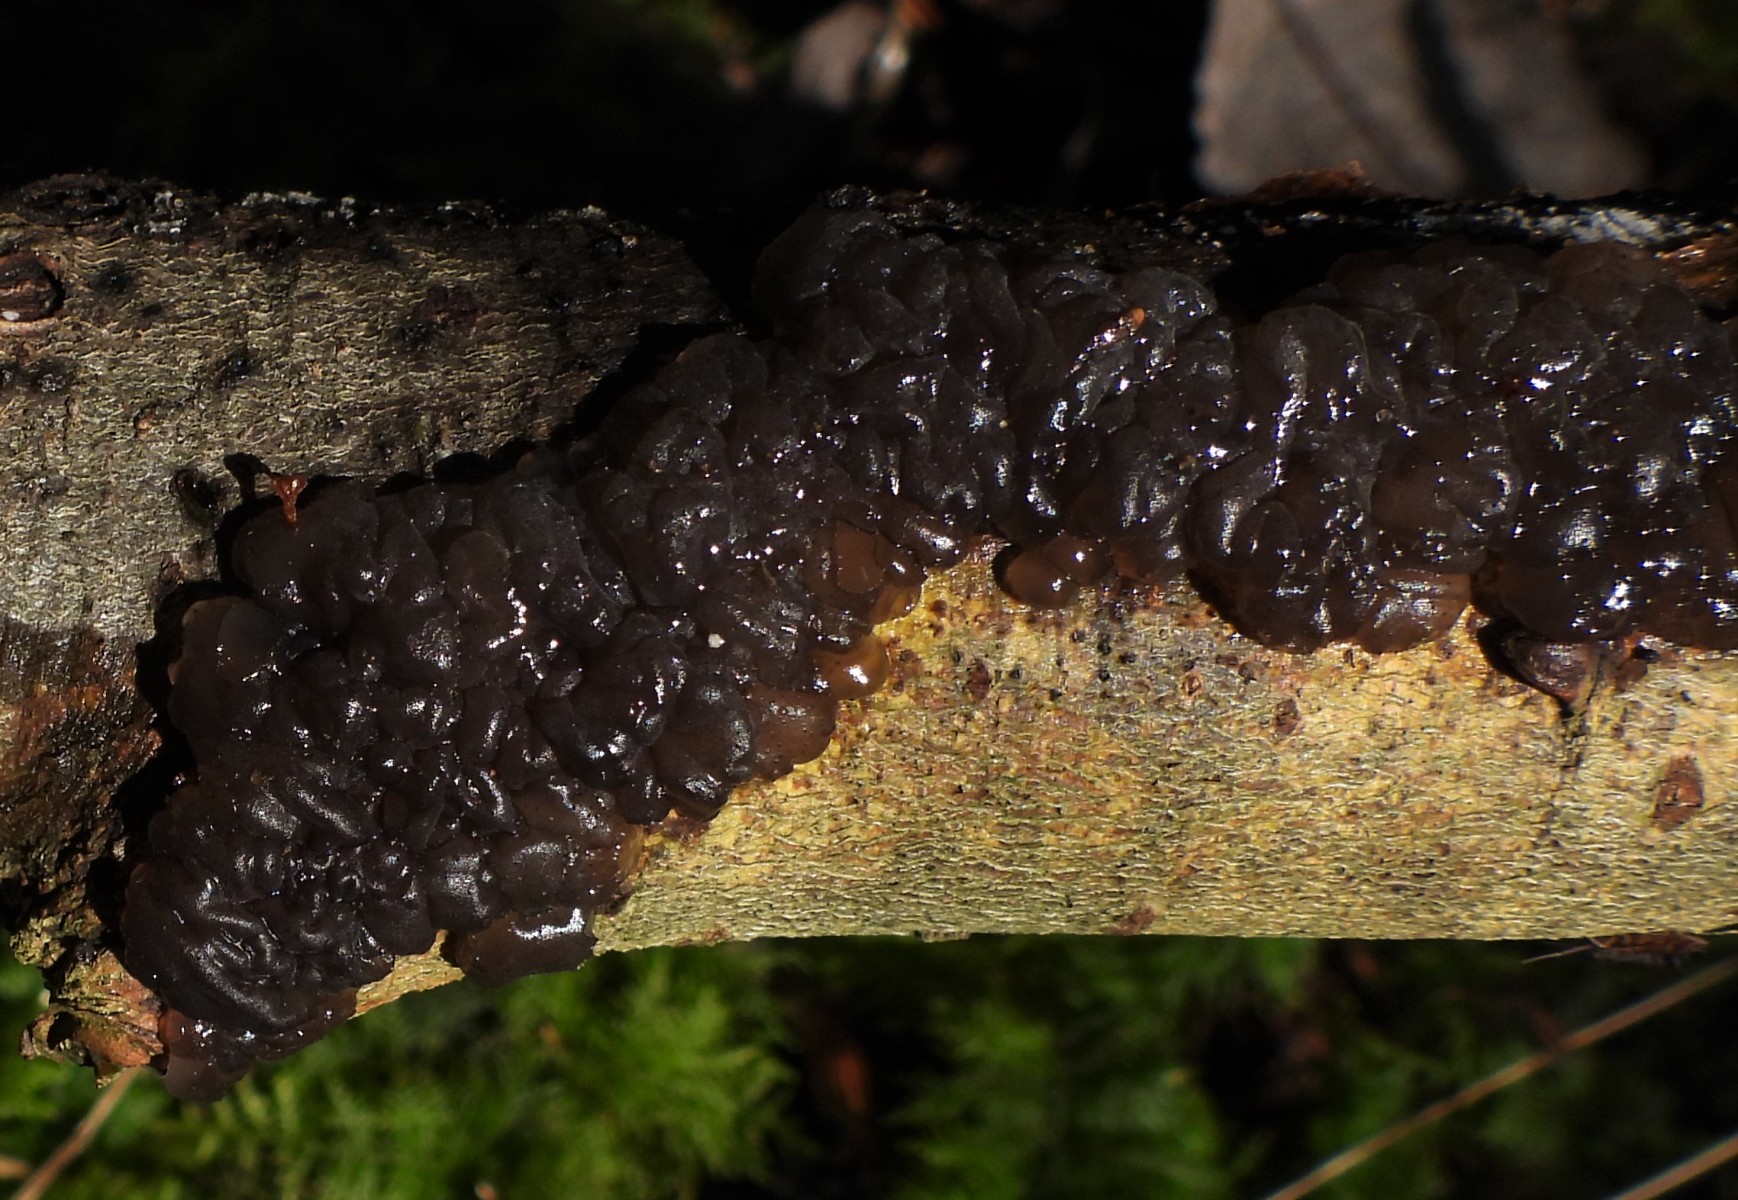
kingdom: Fungi
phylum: Basidiomycota
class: Agaricomycetes
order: Auriculariales
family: Auriculariaceae
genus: Exidia
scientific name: Exidia nigricans
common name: almindelig bævretop
